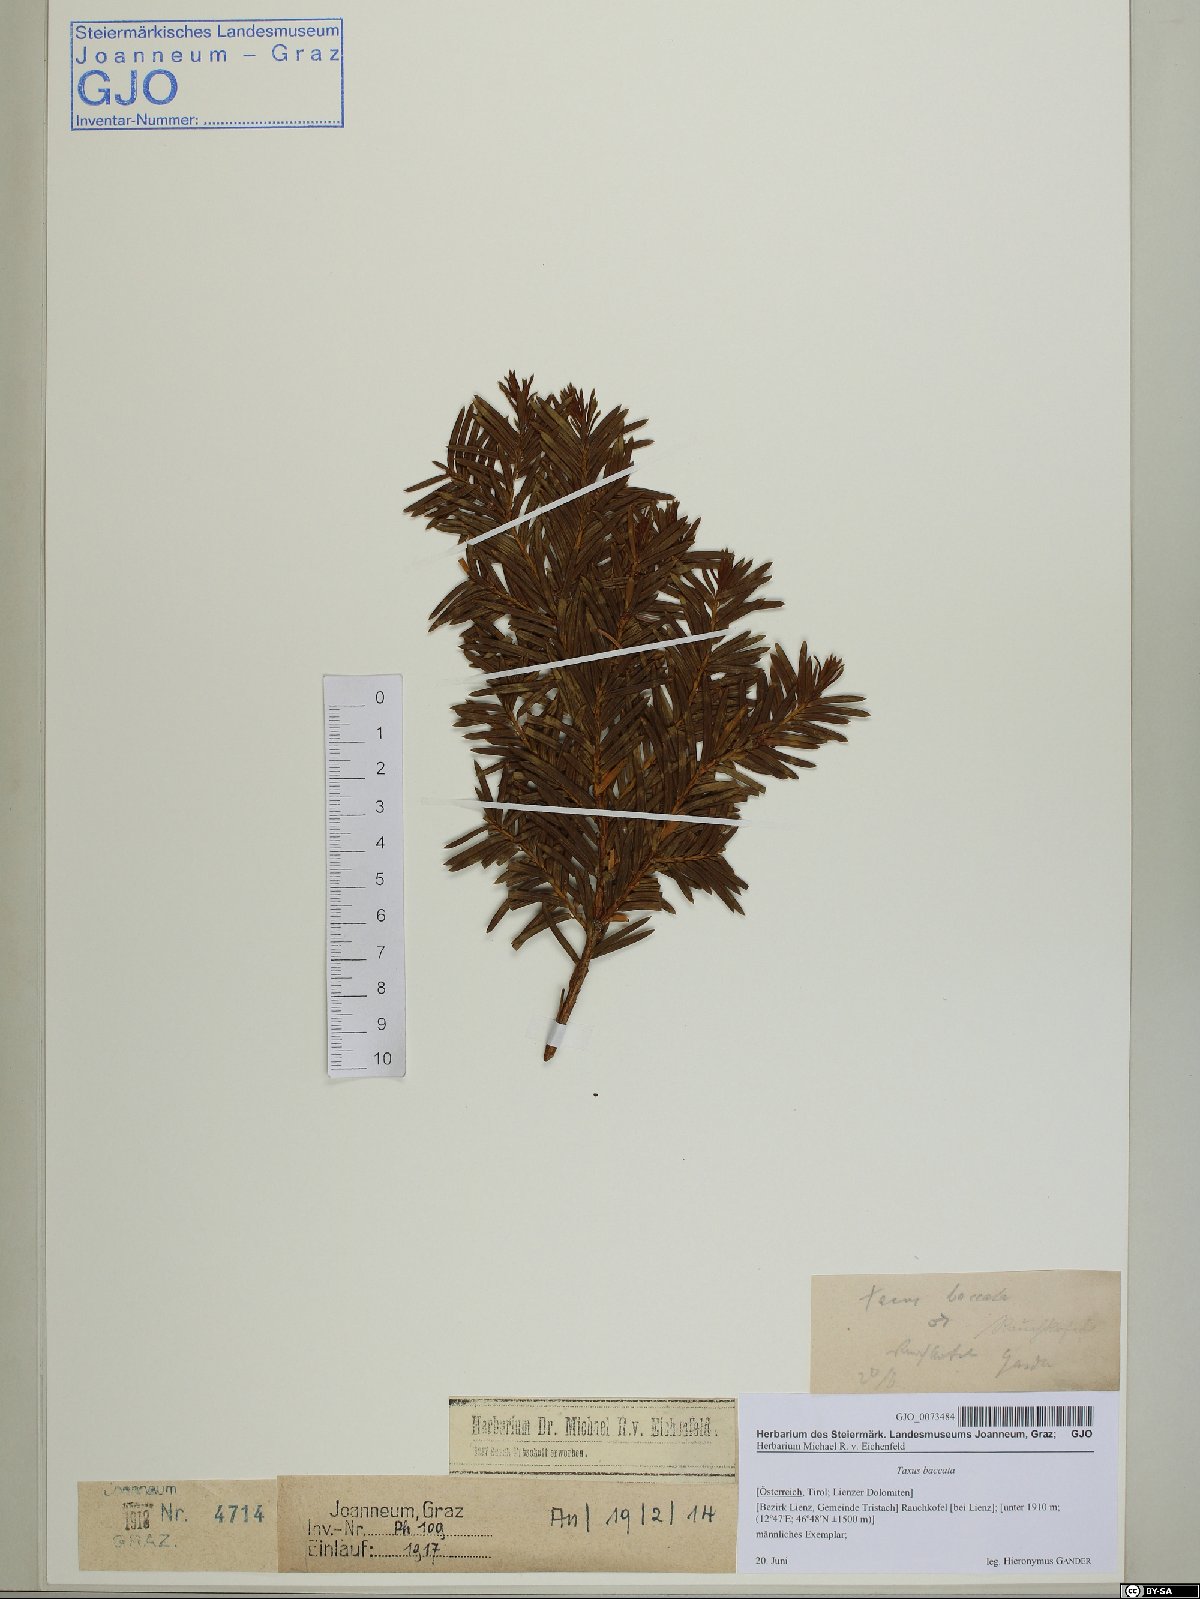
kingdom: Plantae
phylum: Tracheophyta
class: Pinopsida
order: Pinales
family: Taxaceae
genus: Taxus
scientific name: Taxus baccata
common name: Yew
